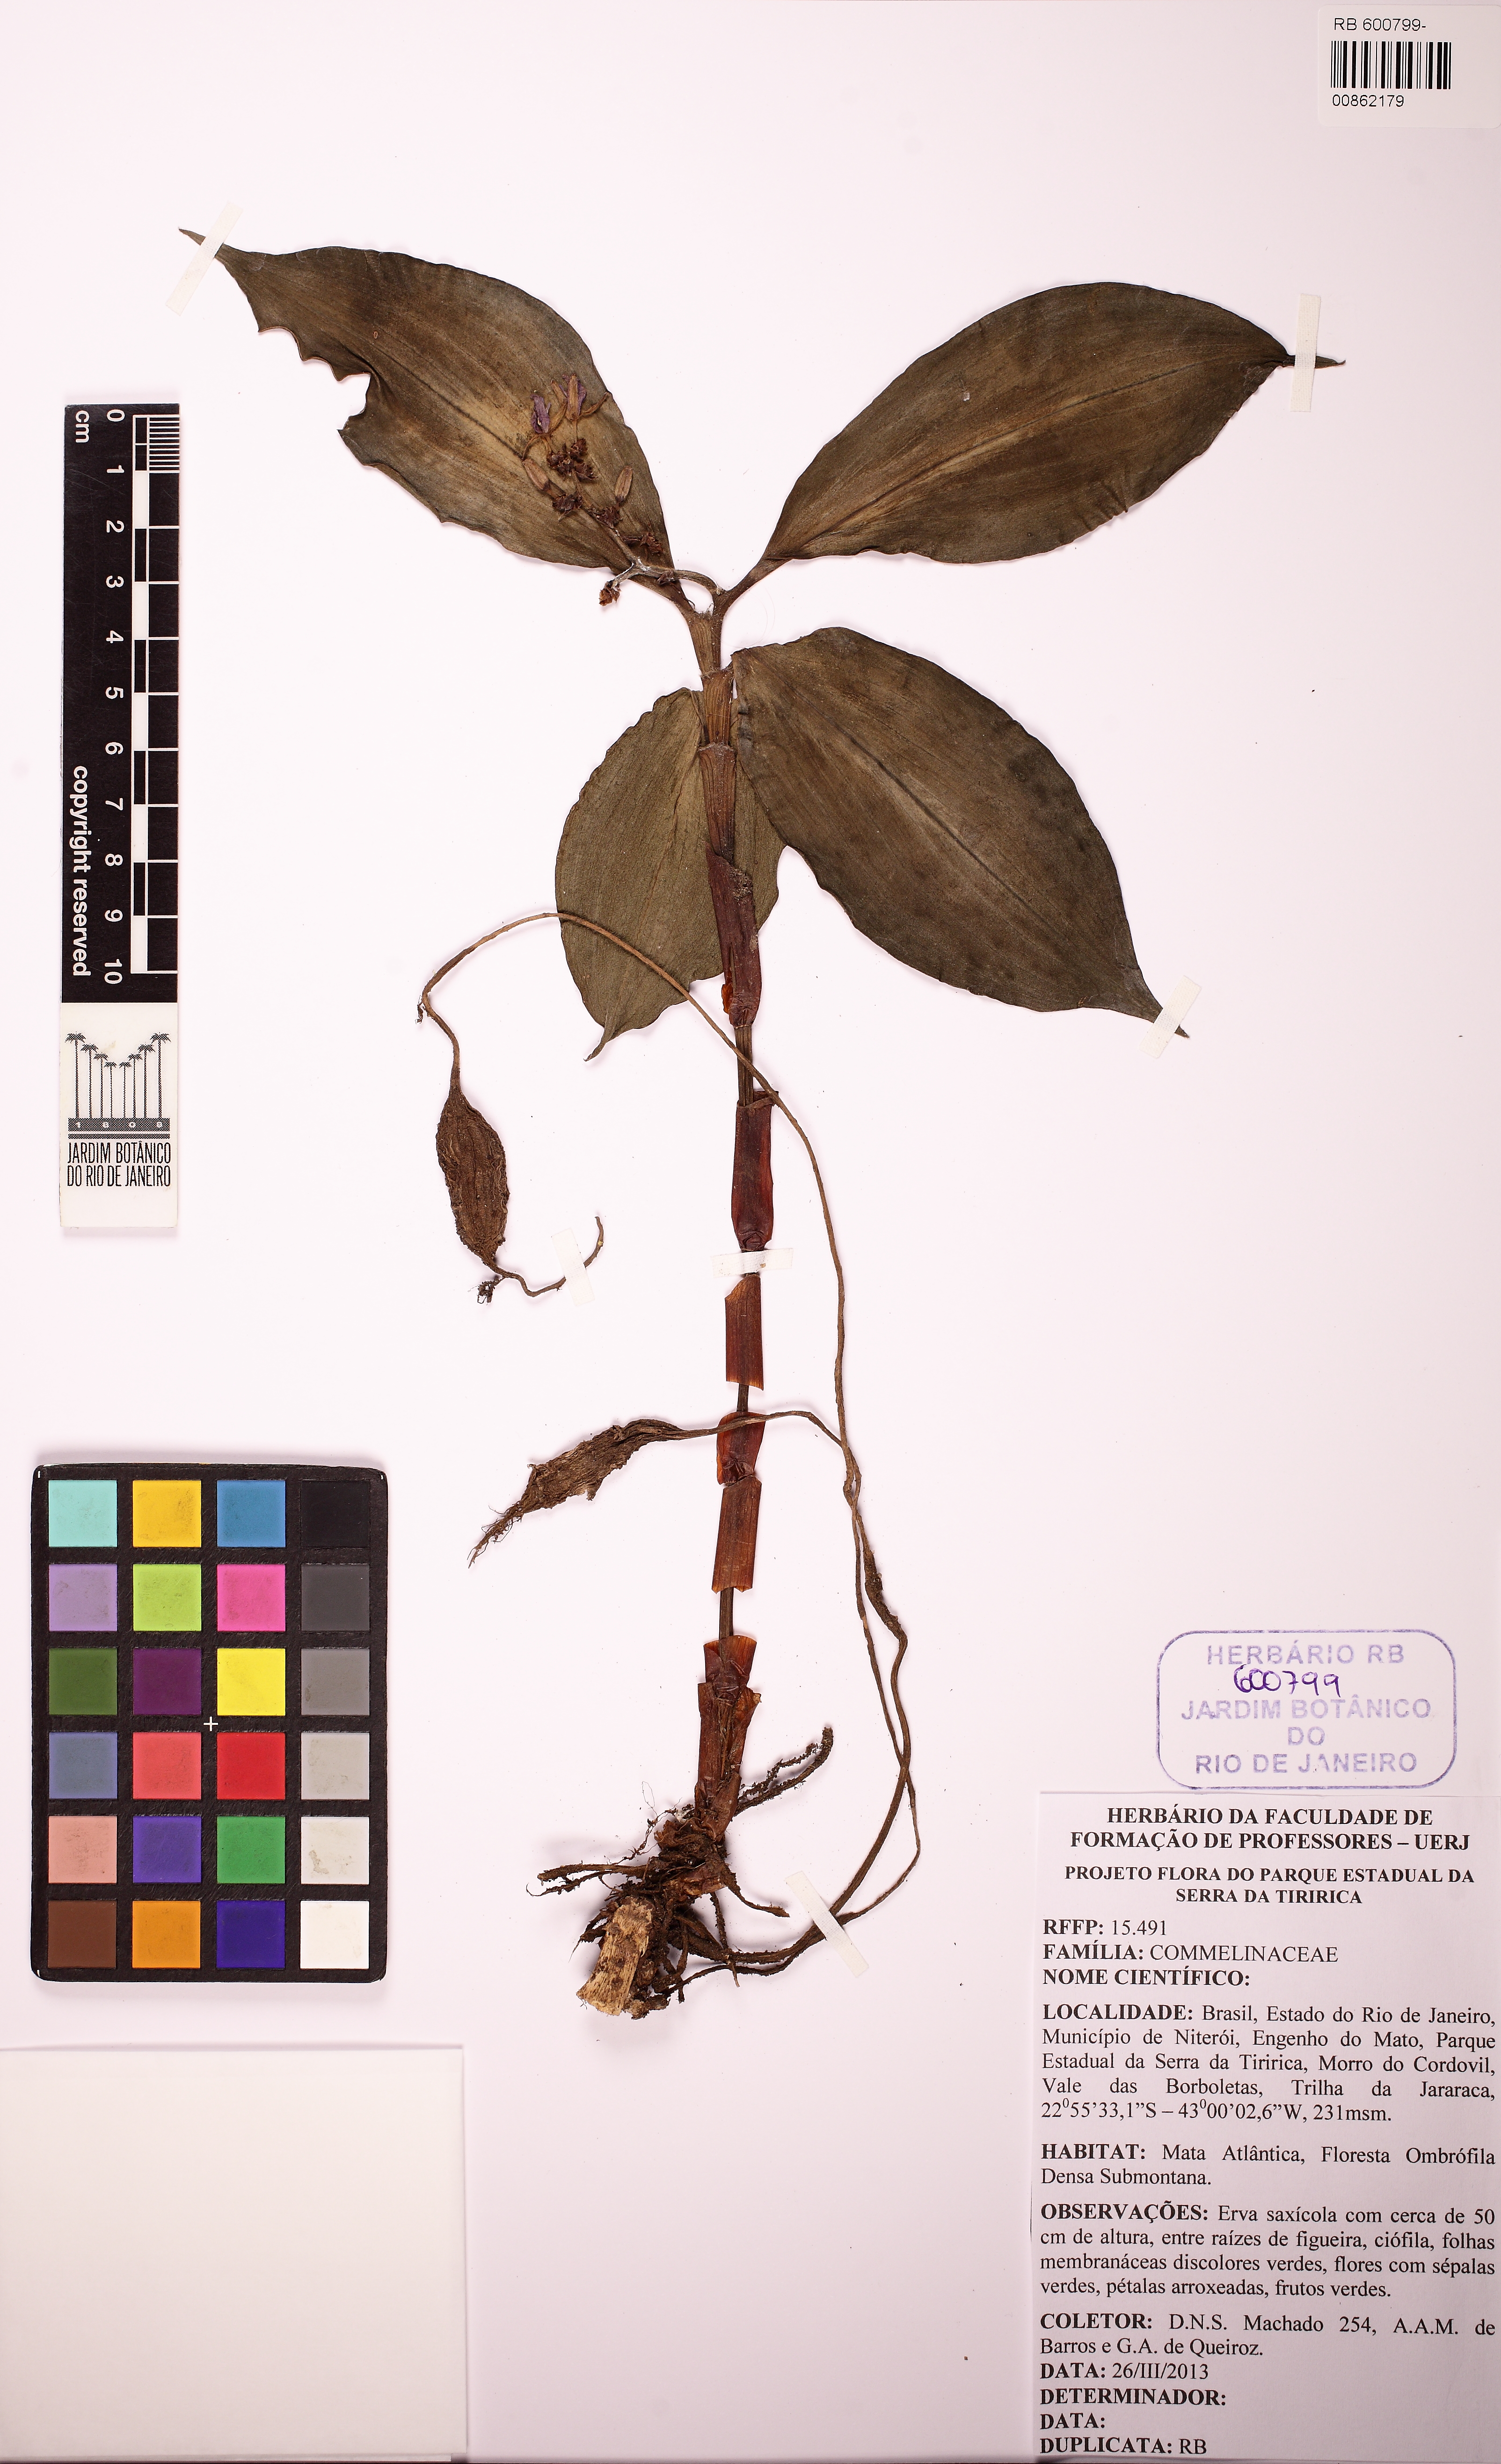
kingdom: Plantae
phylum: Tracheophyta
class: Liliopsida
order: Commelinales
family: Commelinaceae
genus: Dichorisandra
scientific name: Dichorisandra oxypetala
